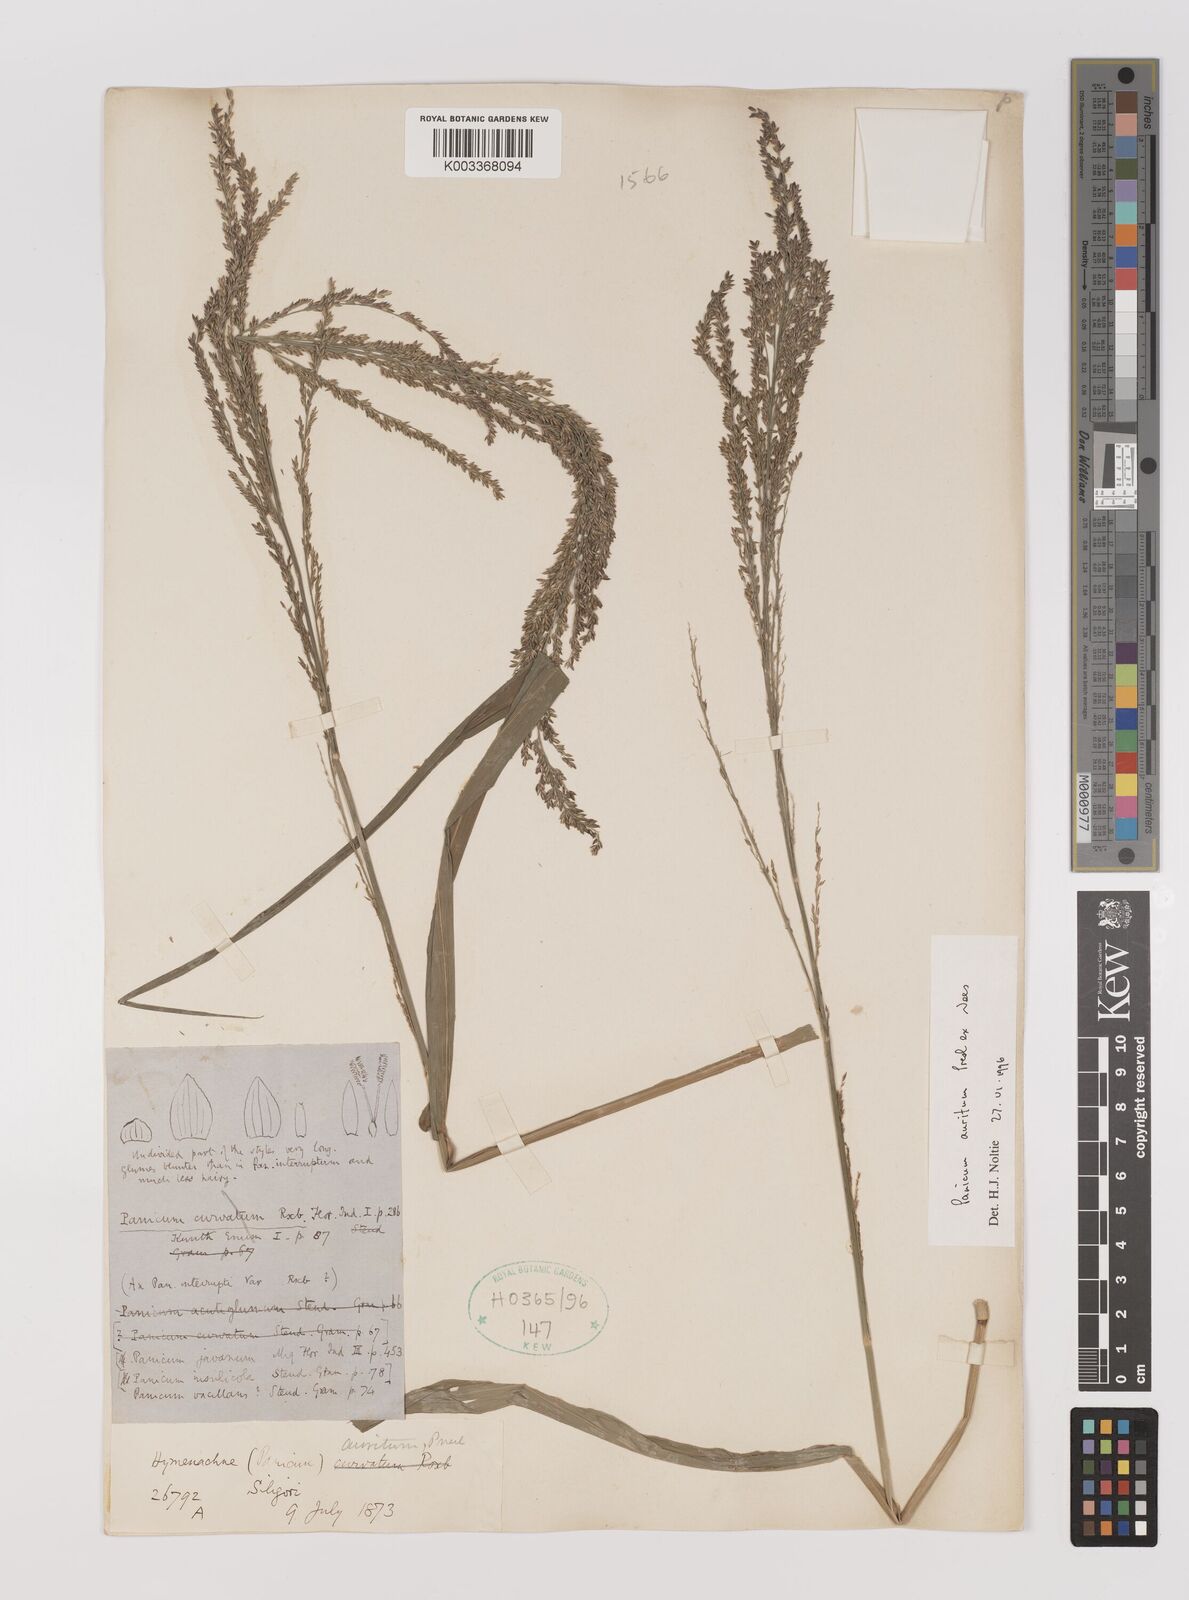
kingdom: Plantae
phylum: Tracheophyta
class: Liliopsida
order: Poales
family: Poaceae
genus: Hymenachne
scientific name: Hymenachne aurita
